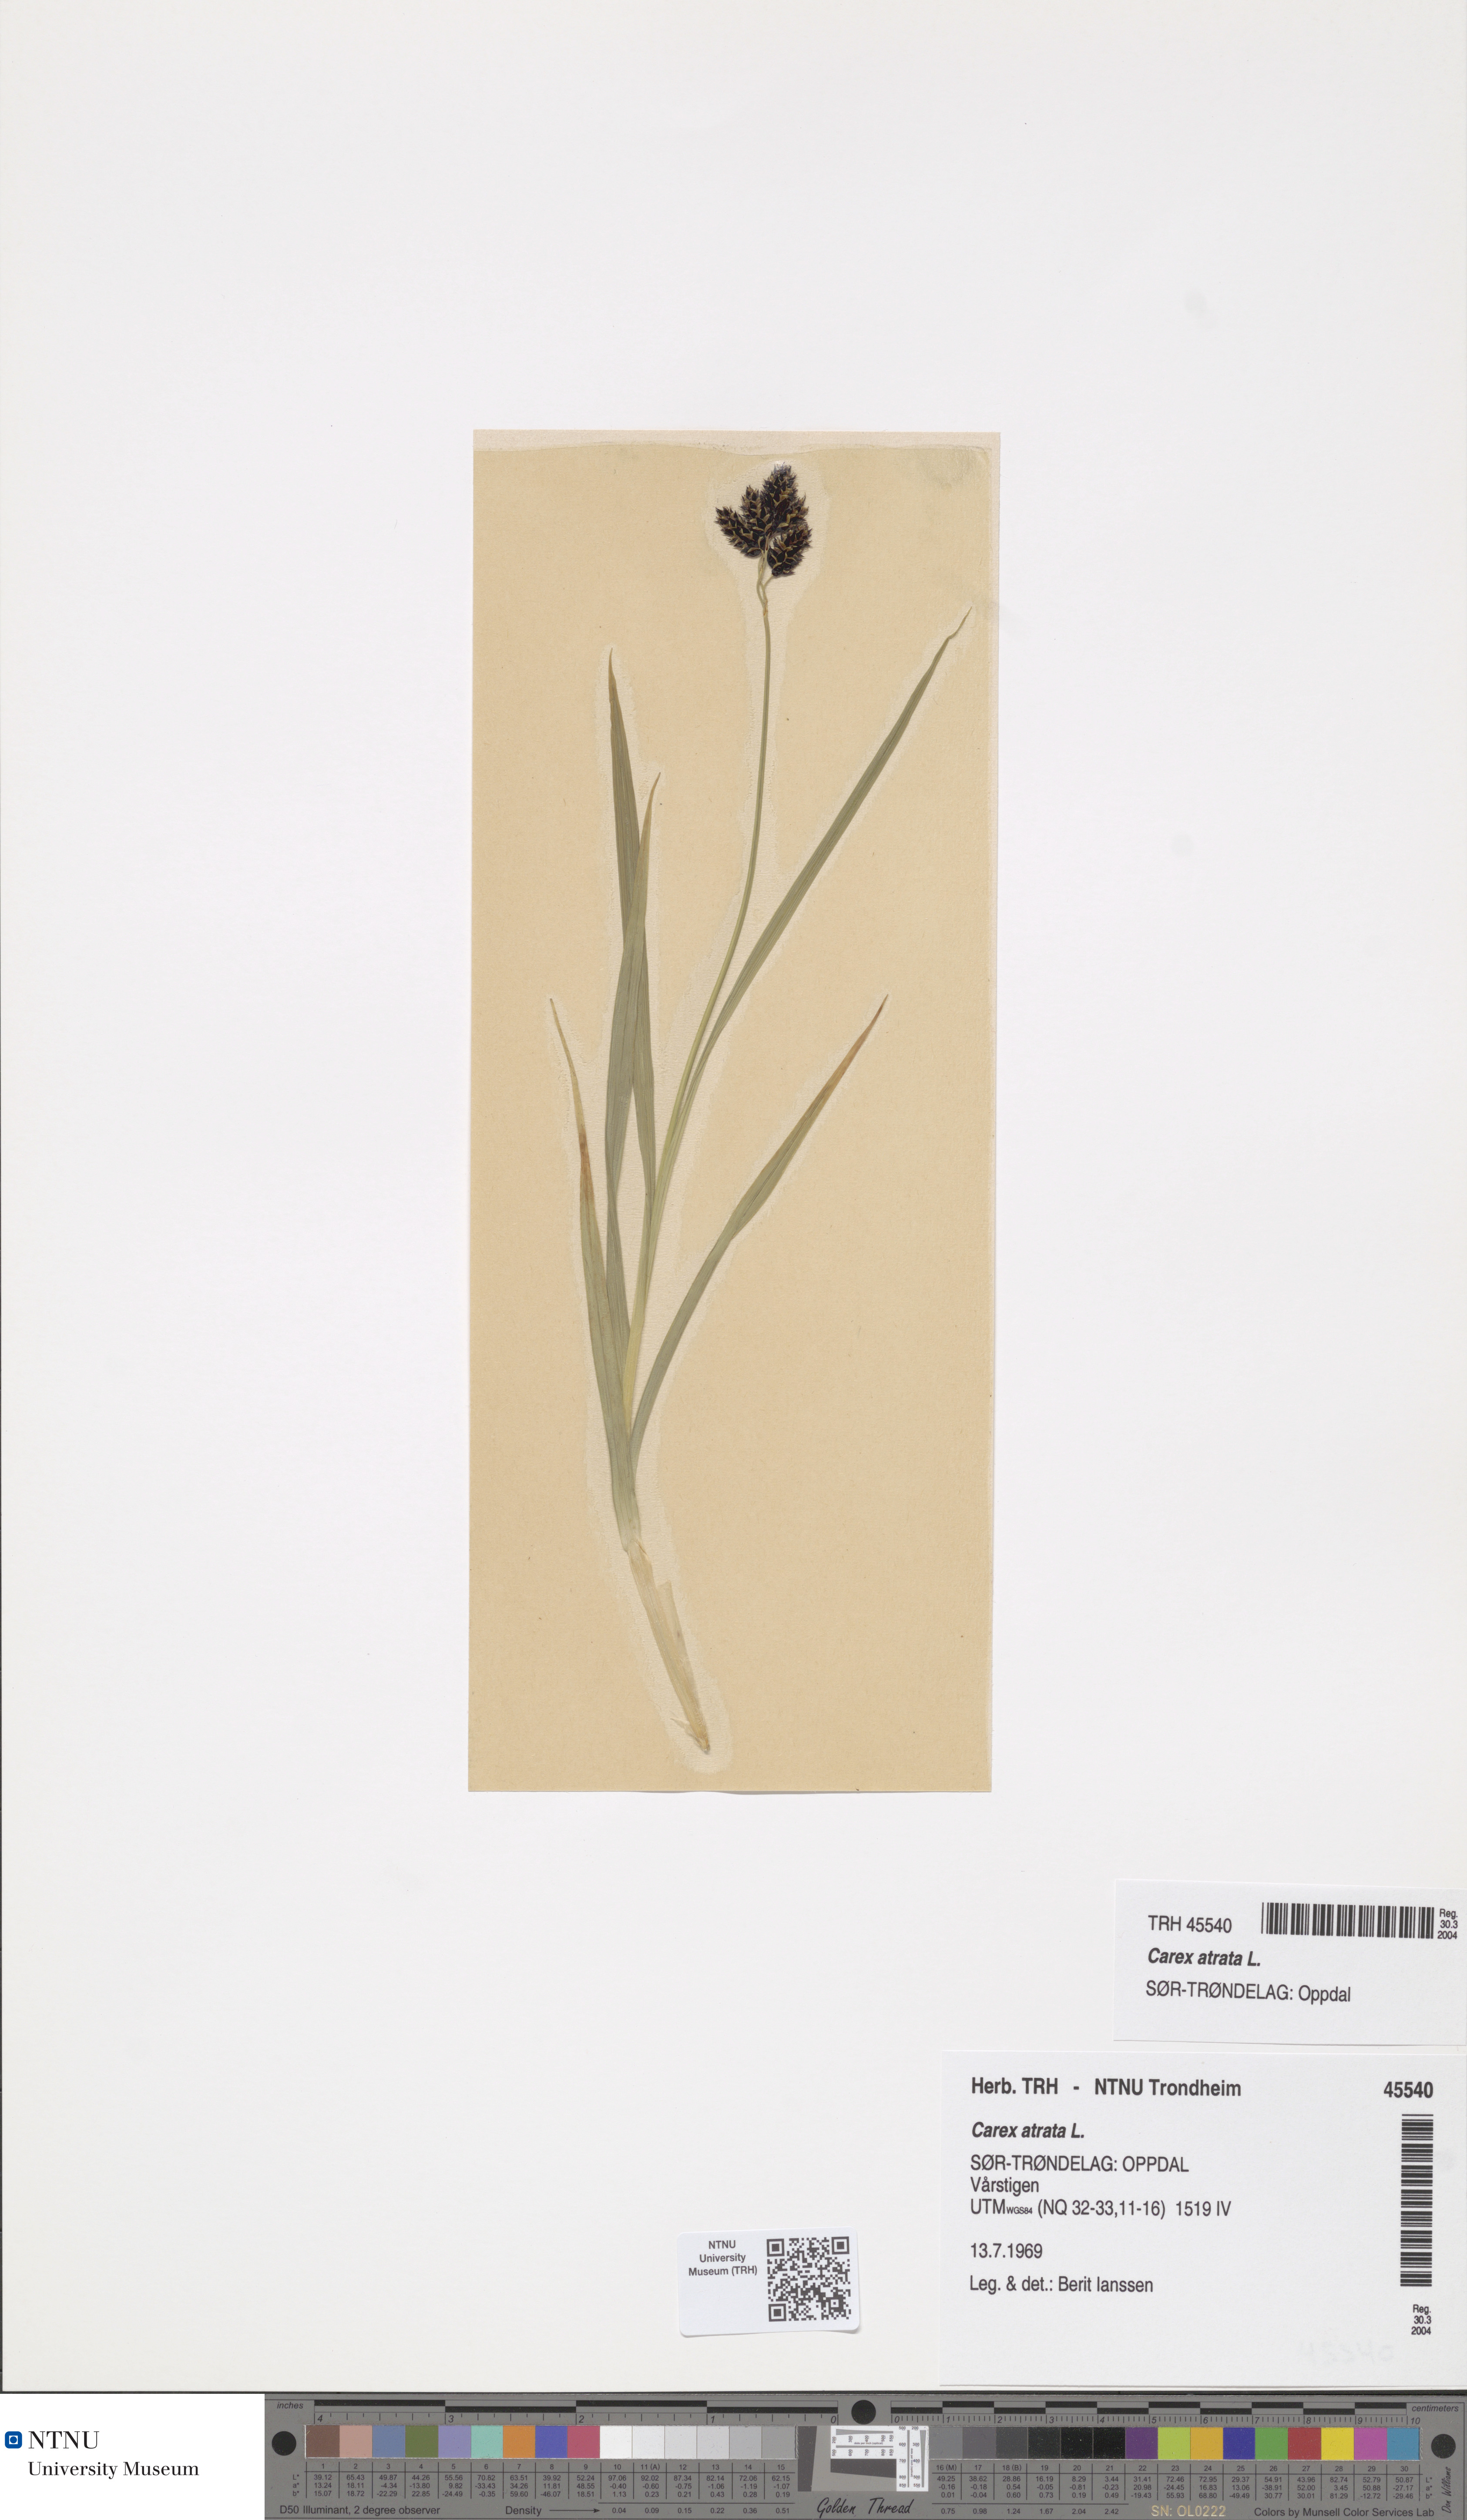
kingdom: Plantae
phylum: Tracheophyta
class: Liliopsida
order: Poales
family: Cyperaceae
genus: Carex
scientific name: Carex atrata
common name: Black alpine sedge
